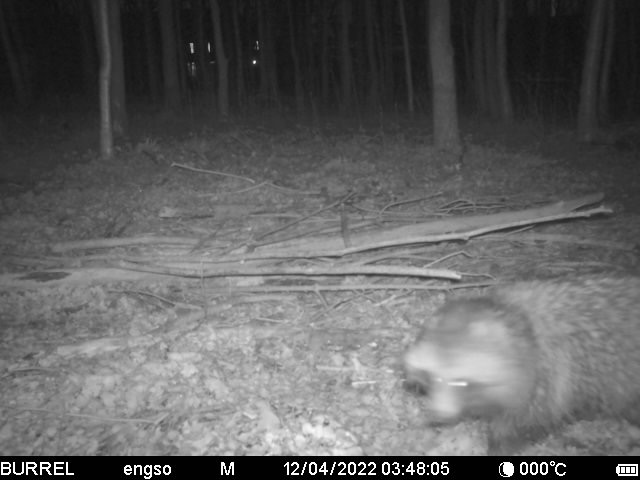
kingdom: Animalia
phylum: Chordata
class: Mammalia
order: Carnivora
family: Canidae
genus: Nyctereutes
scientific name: Nyctereutes procyonoides
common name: Mårhund
